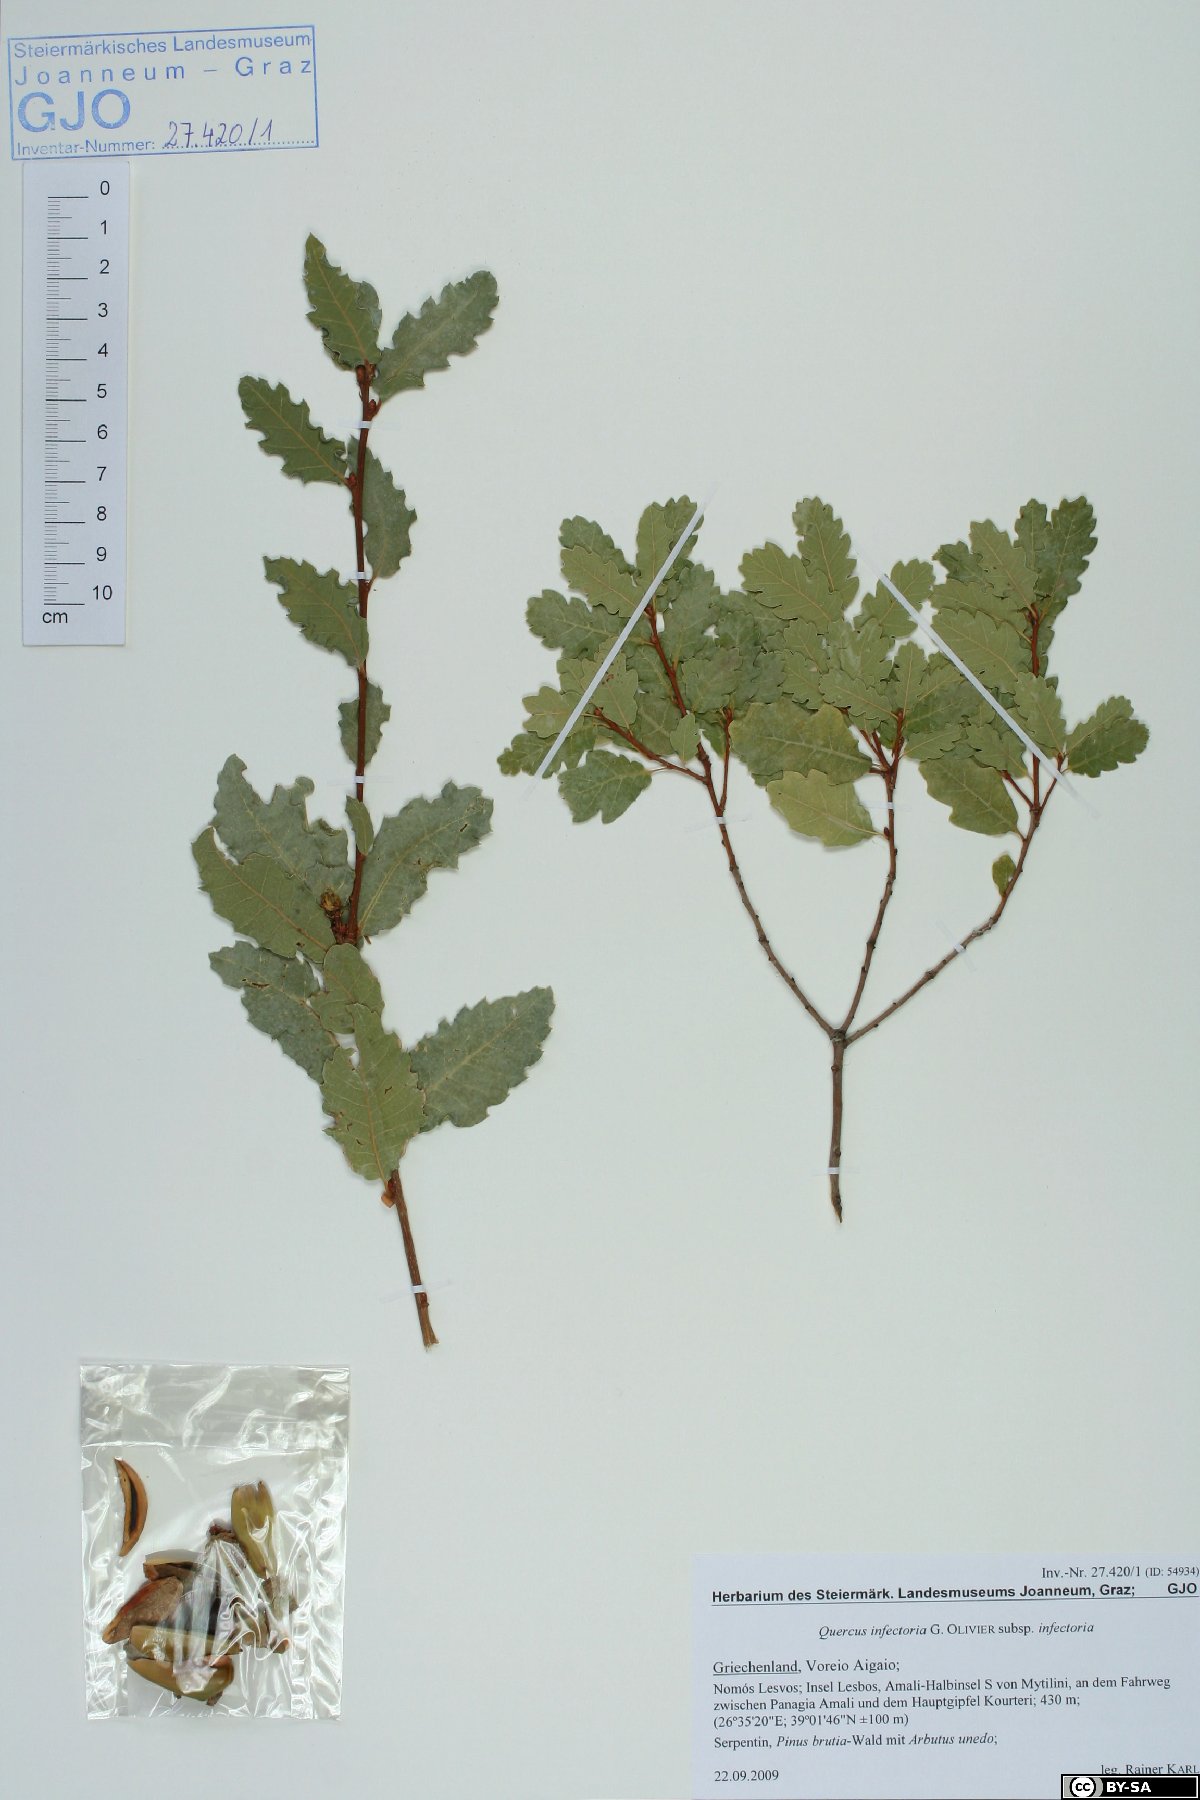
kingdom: Plantae
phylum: Tracheophyta
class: Magnoliopsida
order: Fagales
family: Fagaceae
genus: Quercus
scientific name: Quercus infectoria
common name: Aleppo oak
